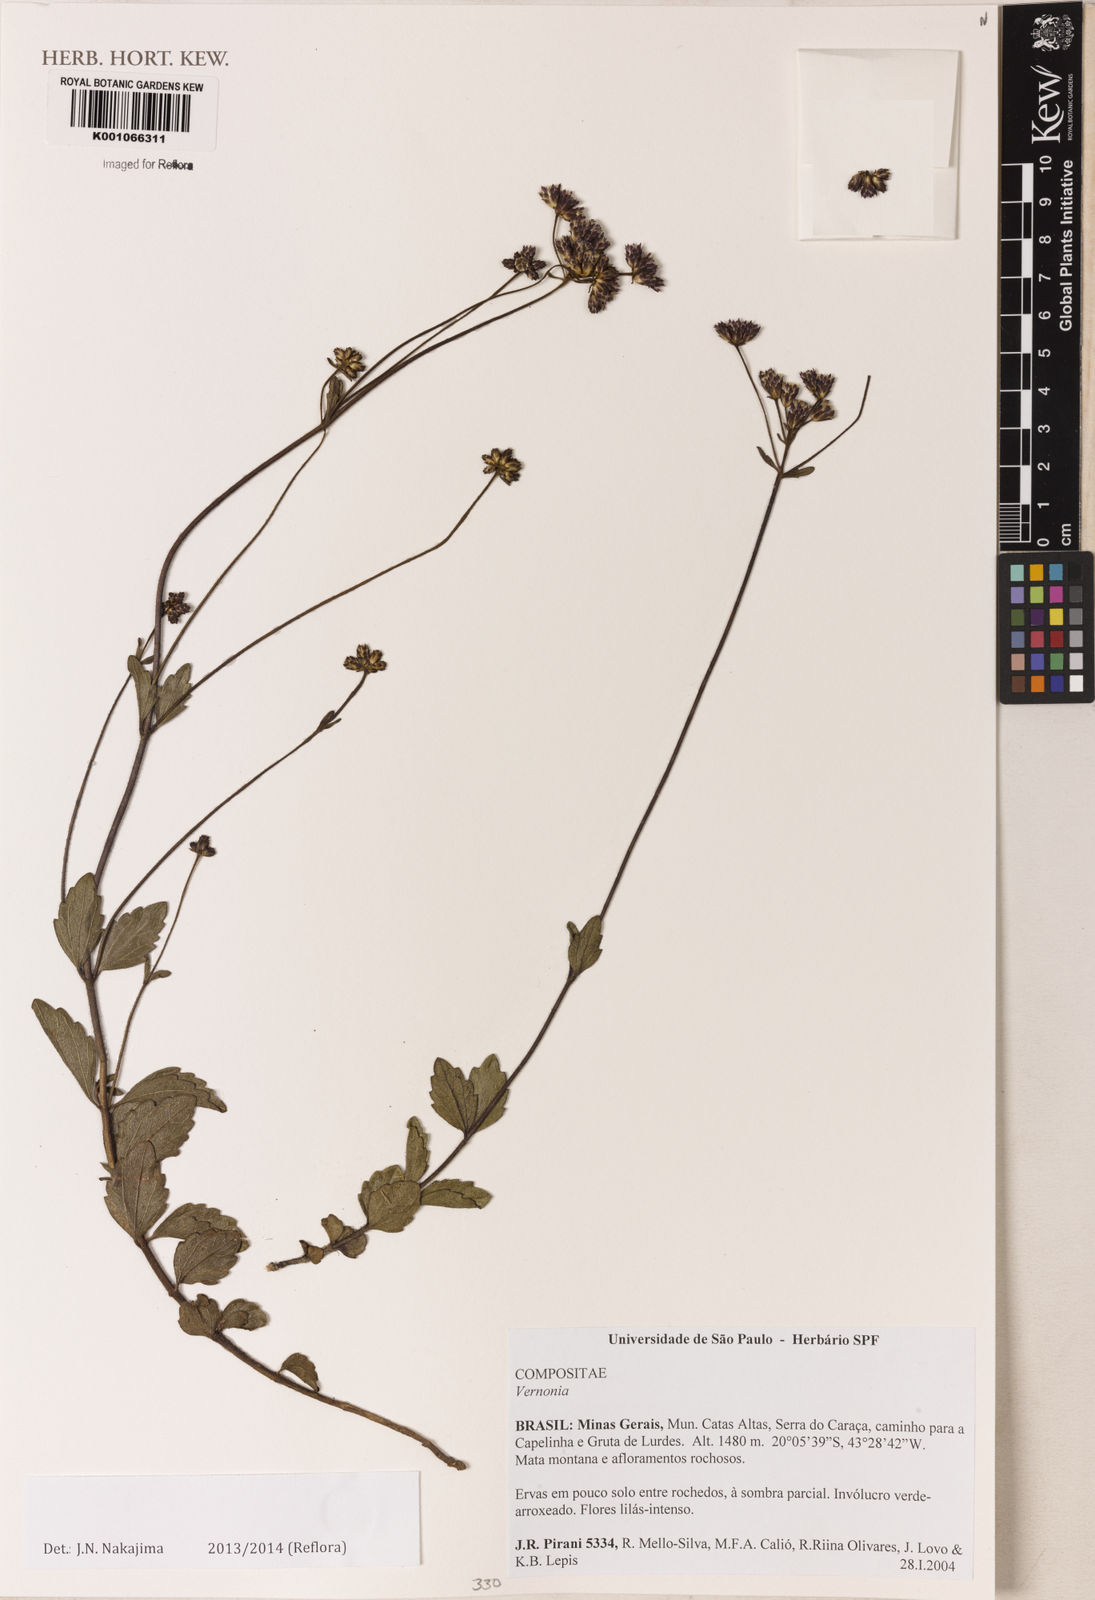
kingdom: Plantae
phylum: Tracheophyta
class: Magnoliopsida
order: Asterales
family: Asteraceae
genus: Chromolaena
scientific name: Chromolaena
